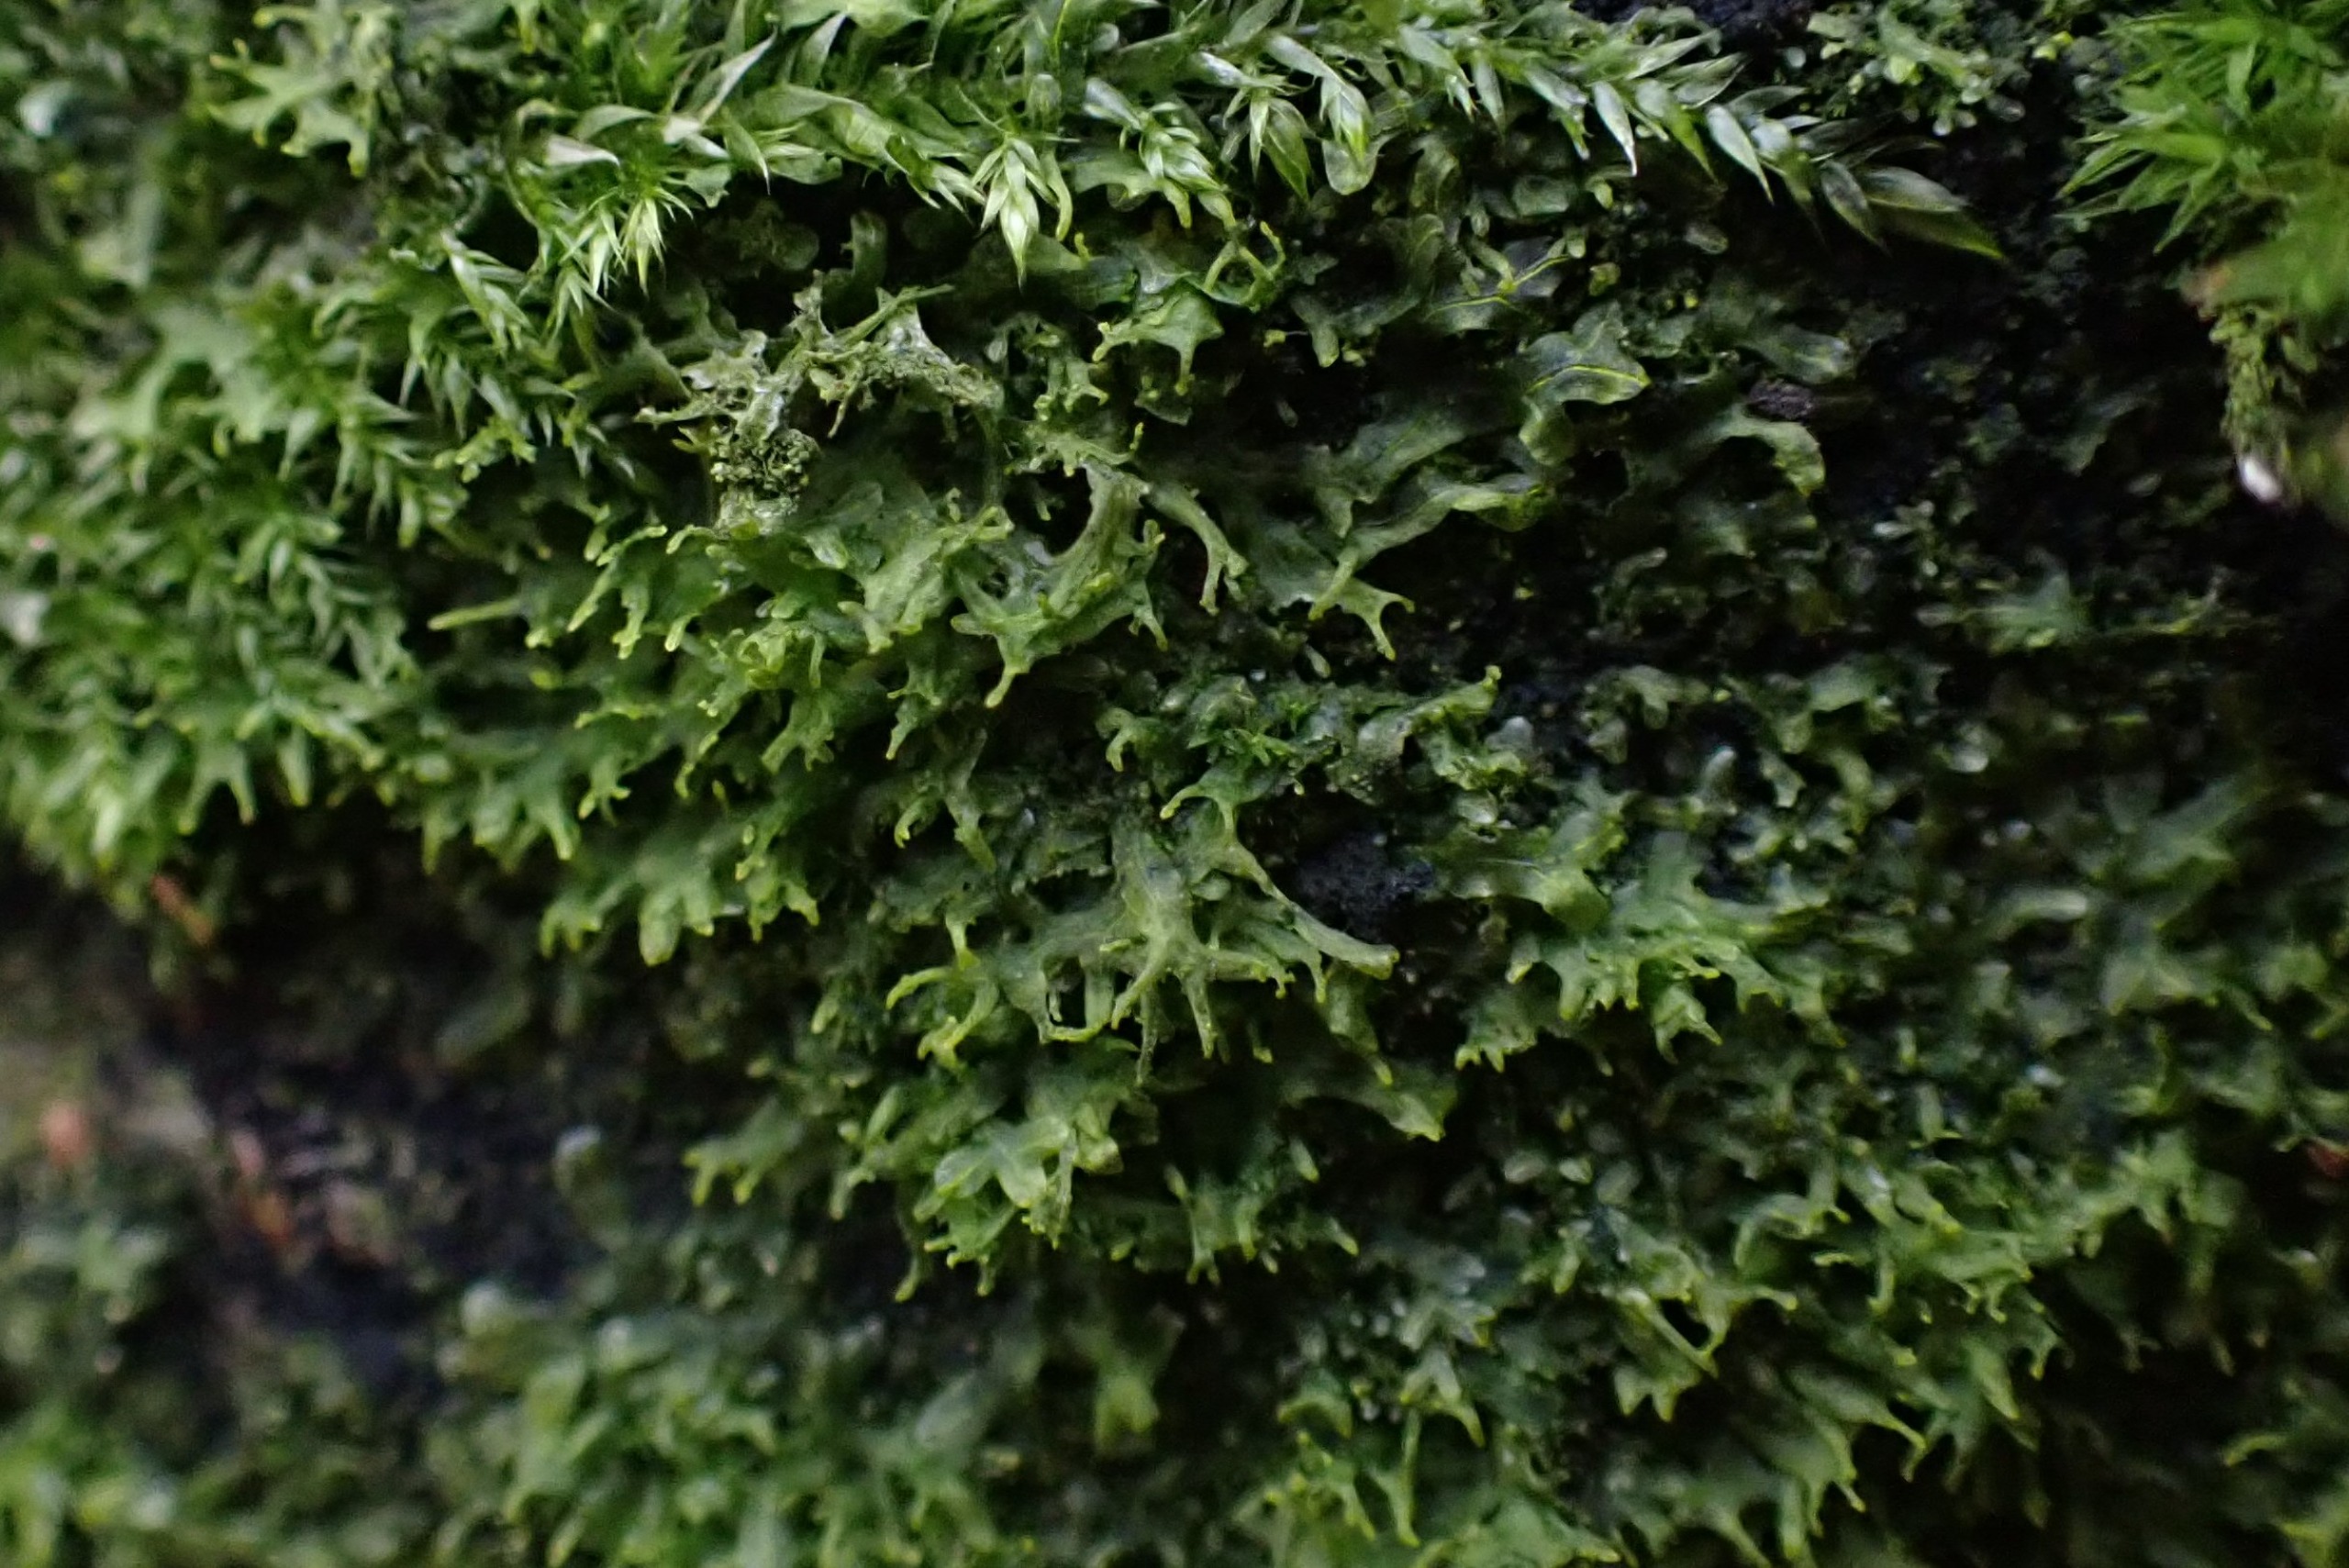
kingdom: Plantae
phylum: Marchantiophyta
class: Jungermanniopsida
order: Metzgeriales
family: Aneuraceae
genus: Riccardia
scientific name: Riccardia palmata
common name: Blågrøn gaffelløv
